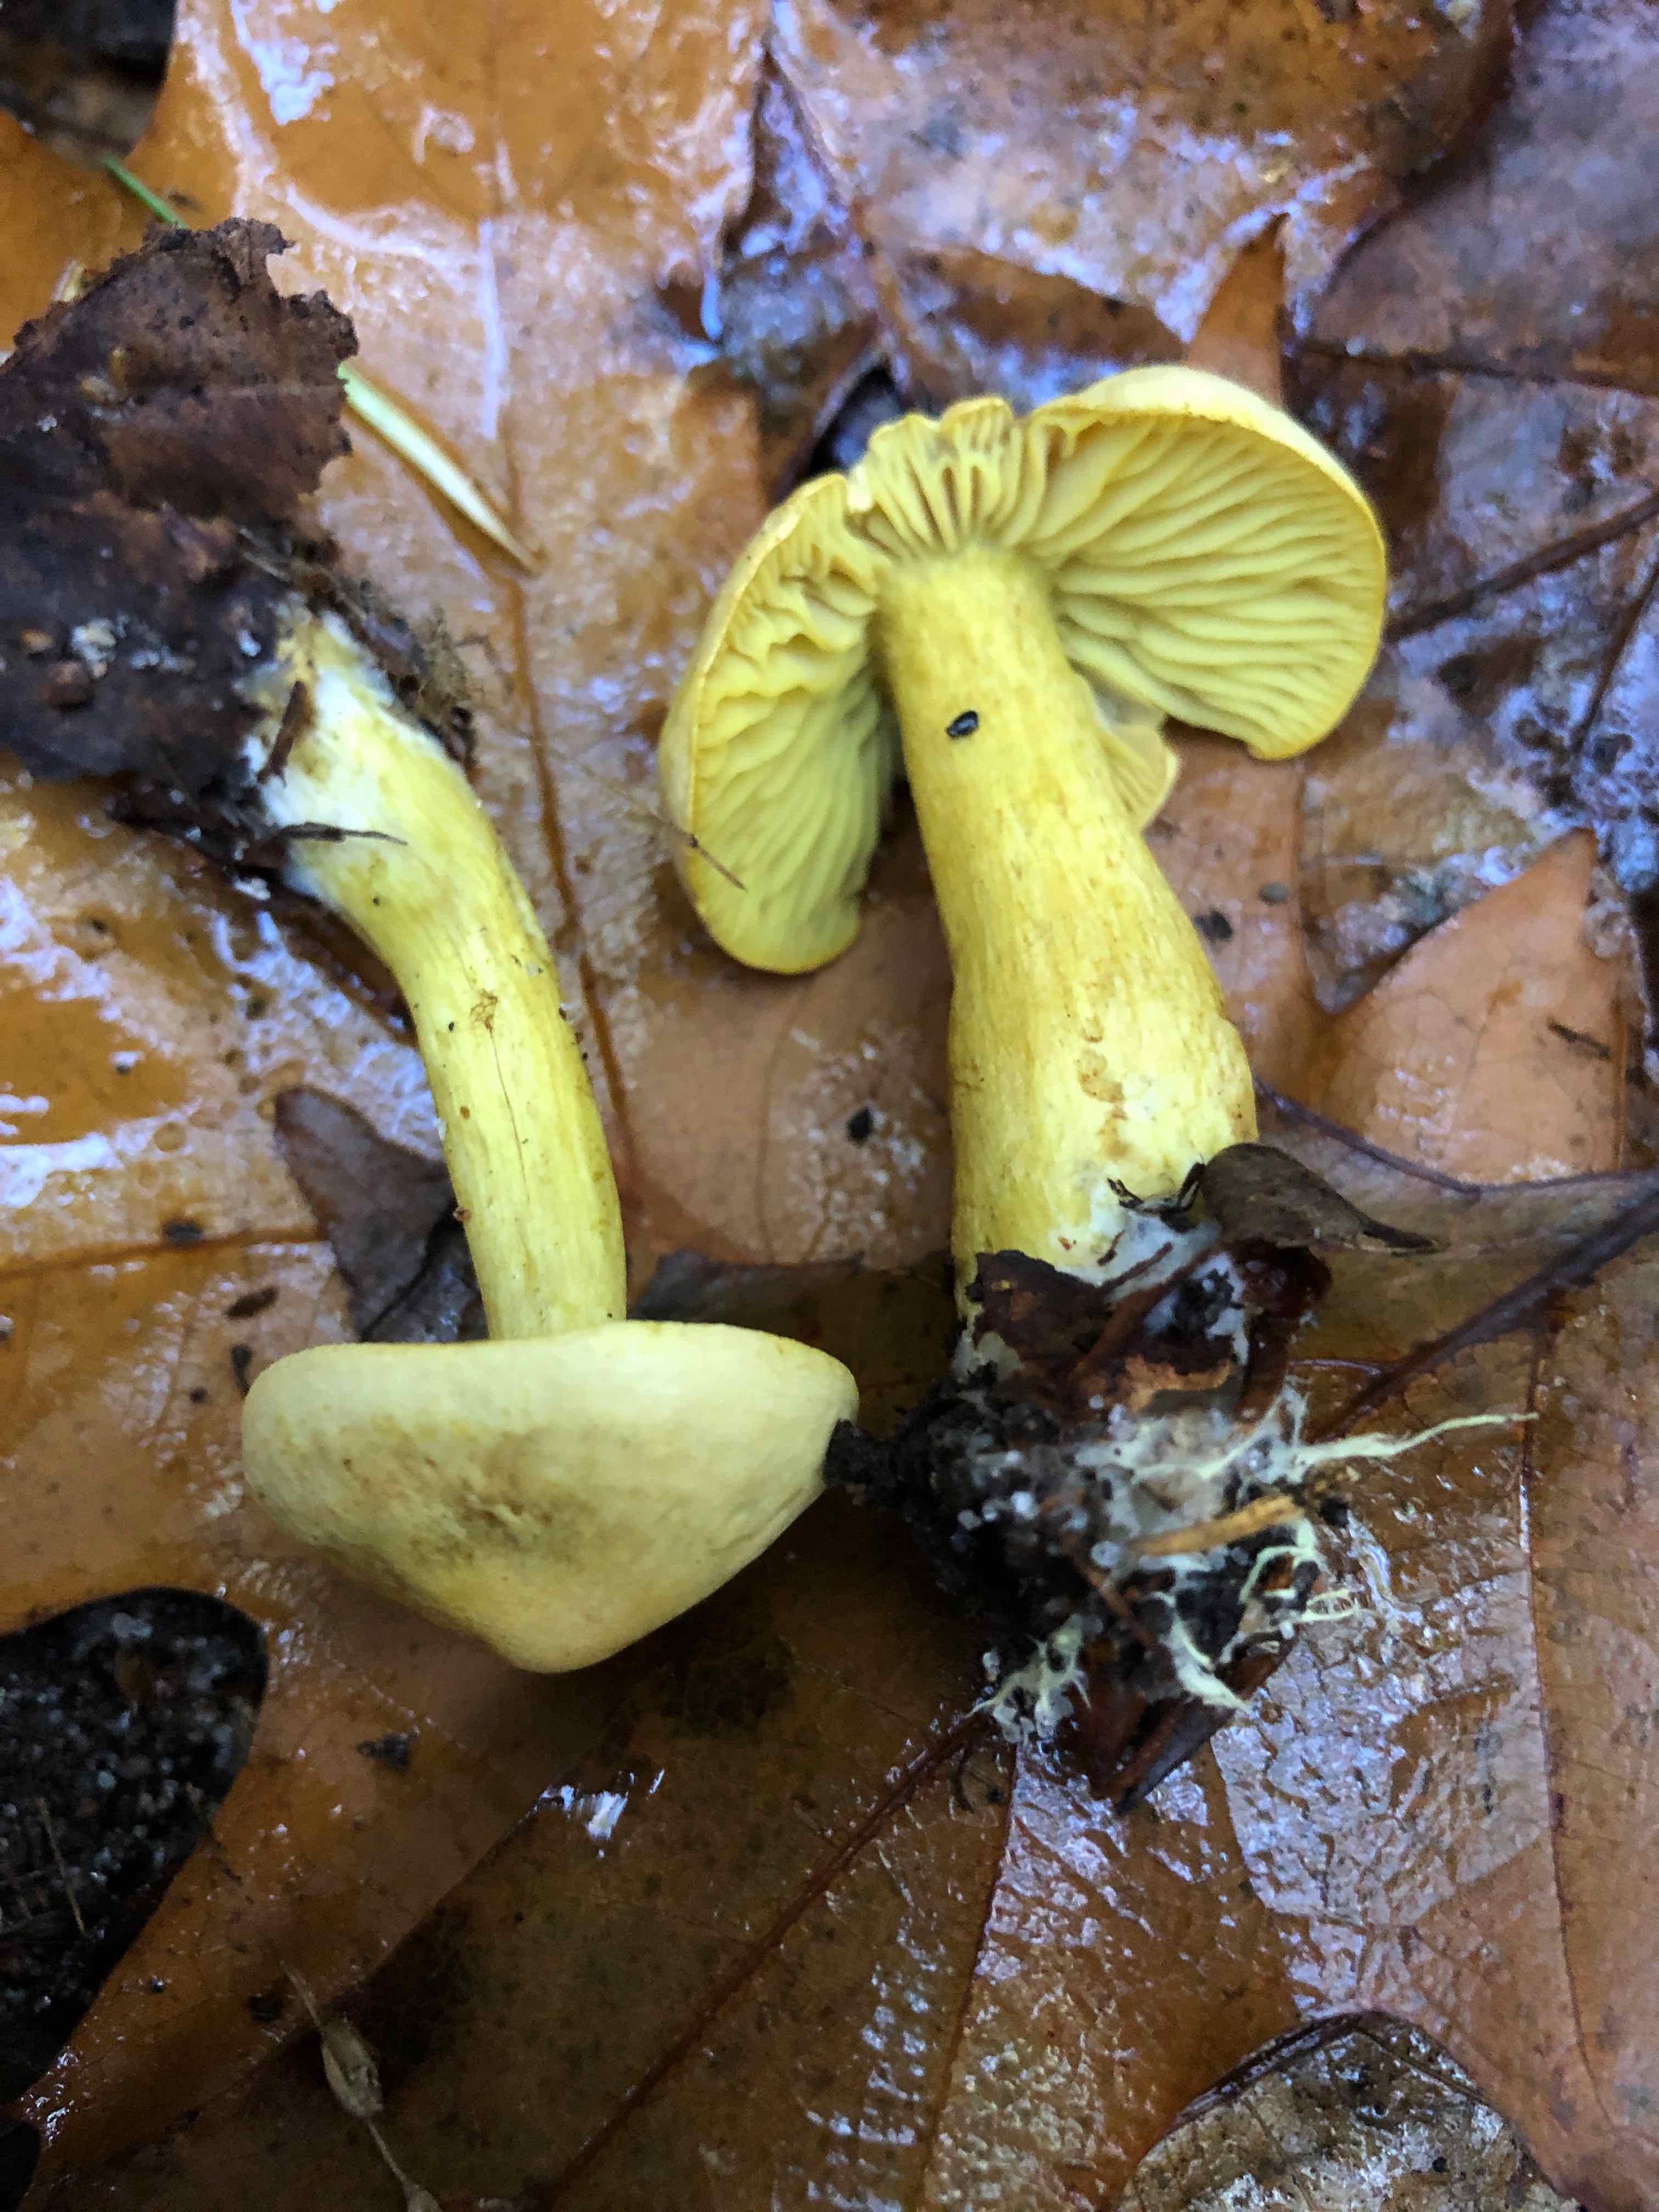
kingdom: Fungi
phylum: Basidiomycota
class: Agaricomycetes
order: Agaricales
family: Tricholomataceae
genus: Tricholoma
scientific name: Tricholoma sulphureum
